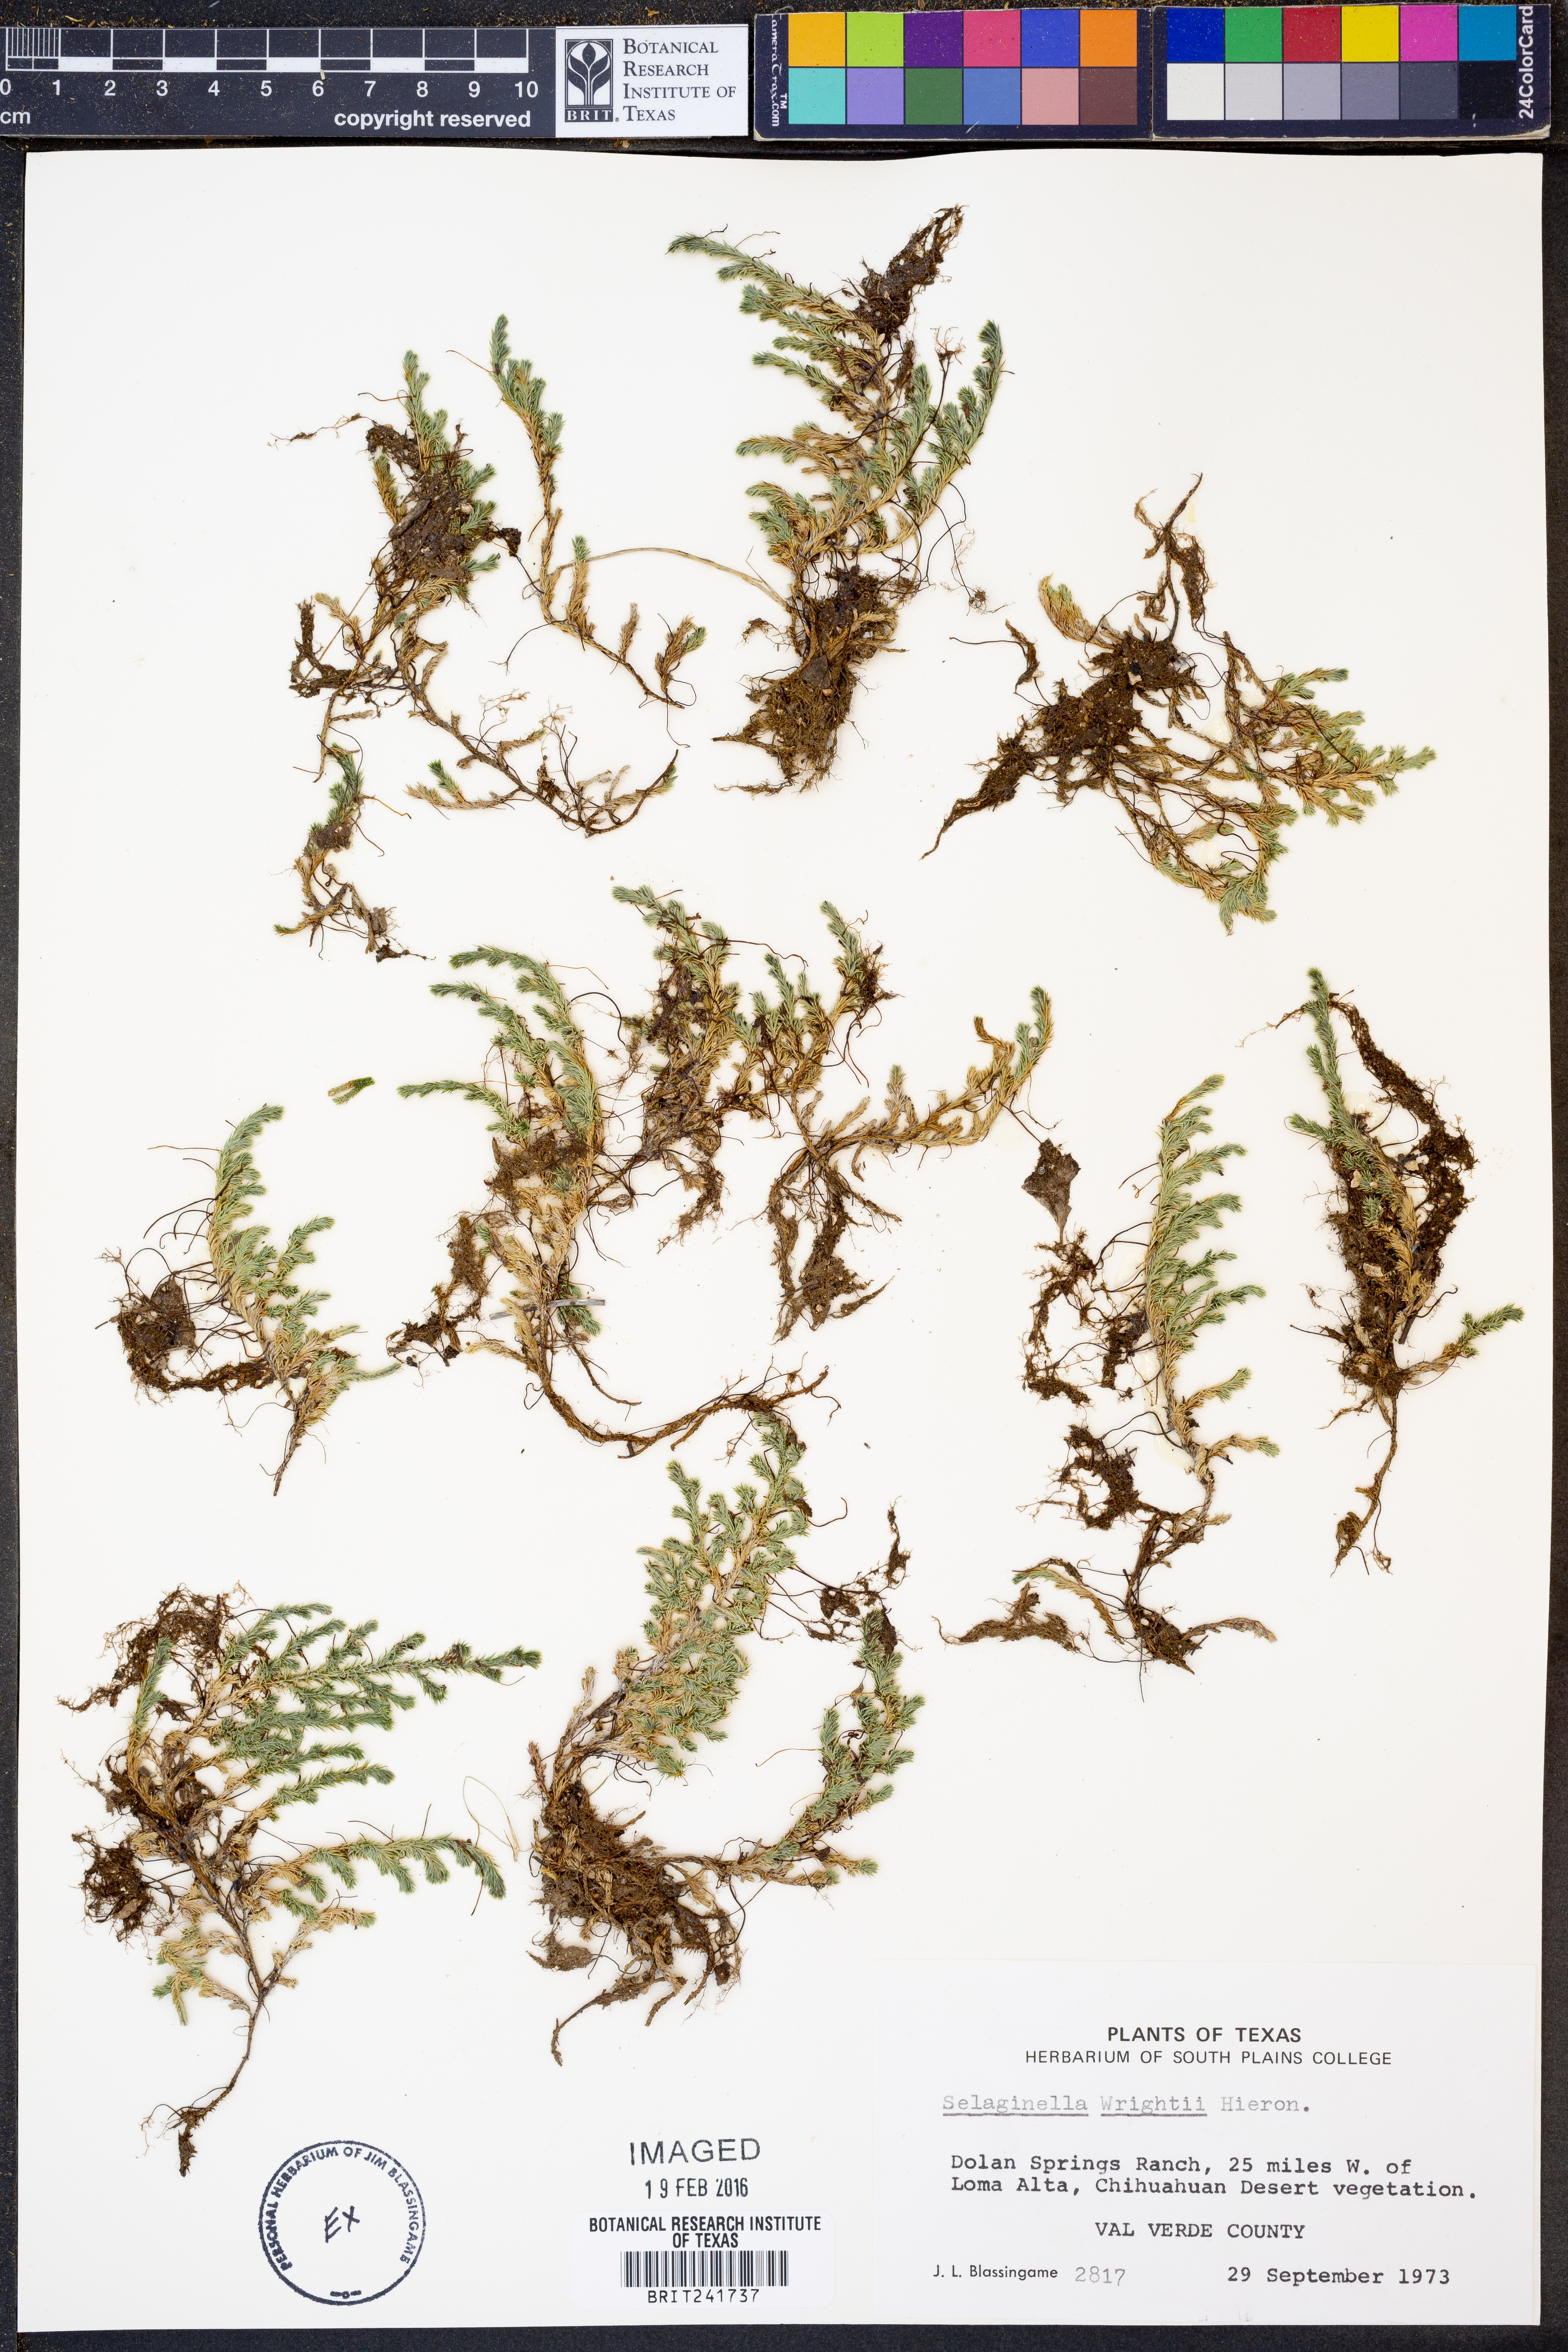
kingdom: Plantae
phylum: Tracheophyta
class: Lycopodiopsida
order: Selaginellales
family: Selaginellaceae
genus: Selaginella
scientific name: Selaginella wrightii
